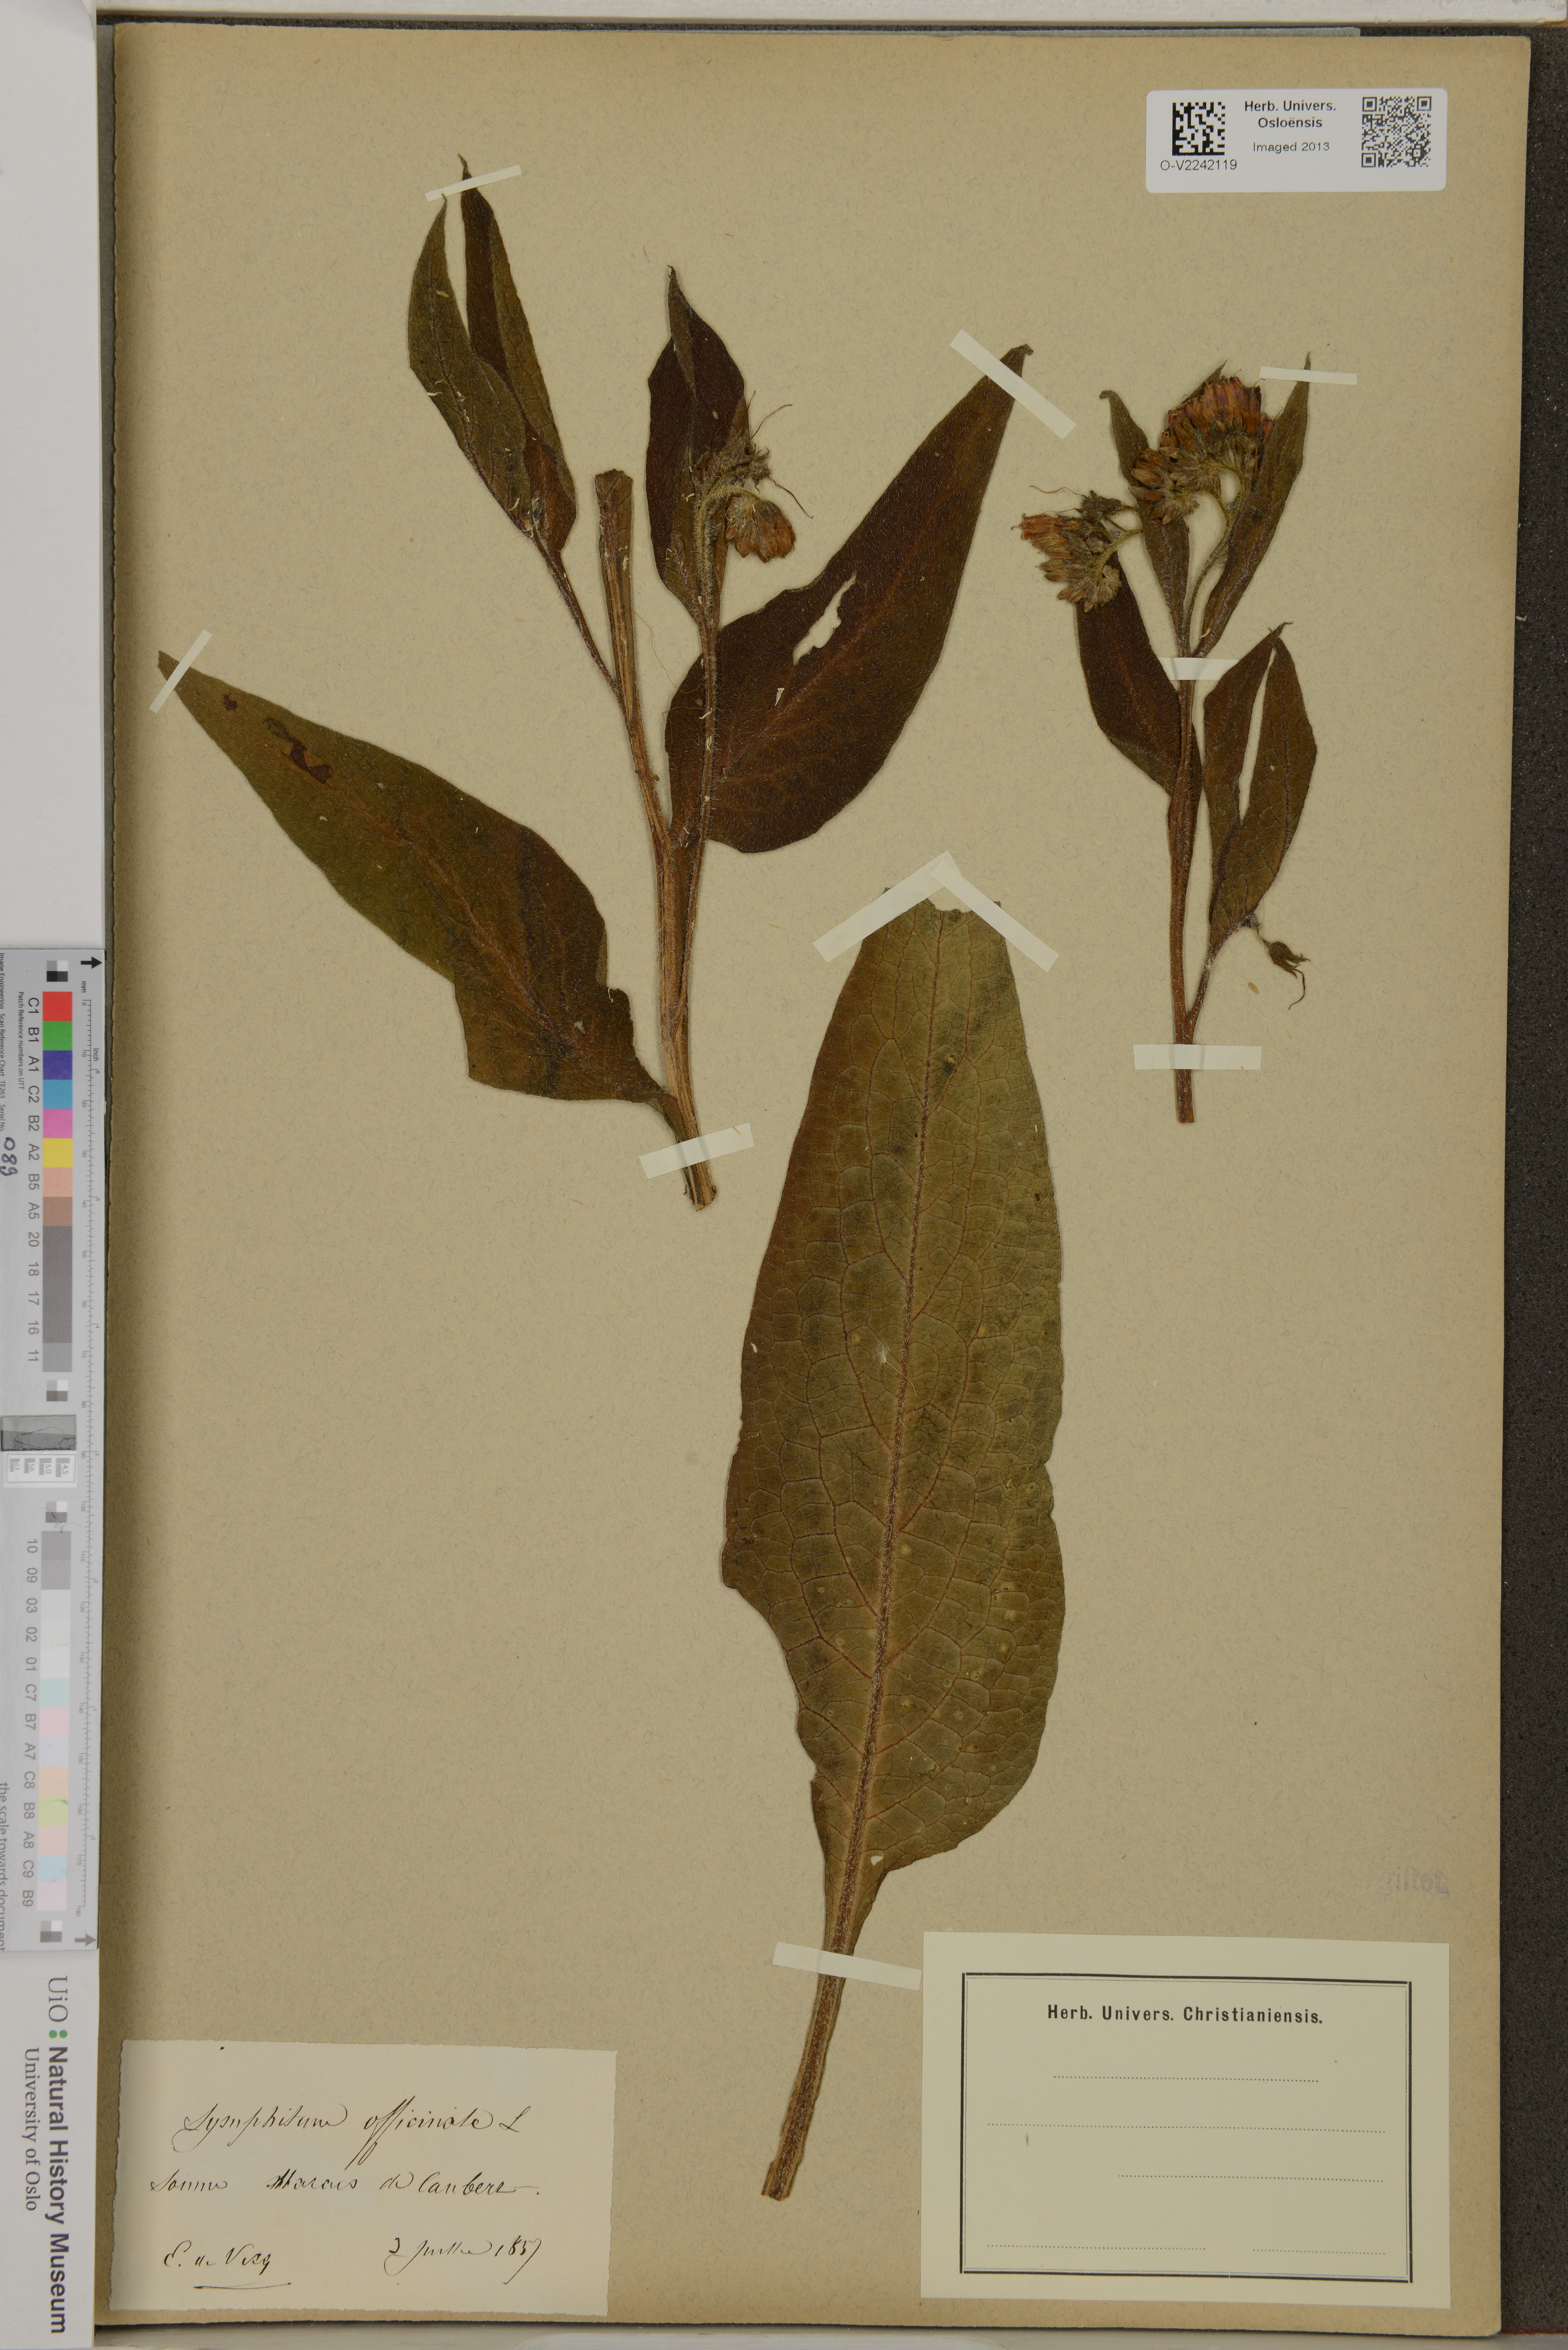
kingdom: Plantae
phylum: Tracheophyta
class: Magnoliopsida
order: Boraginales
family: Boraginaceae
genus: Symphytum
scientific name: Symphytum officinale
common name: Common comfrey
